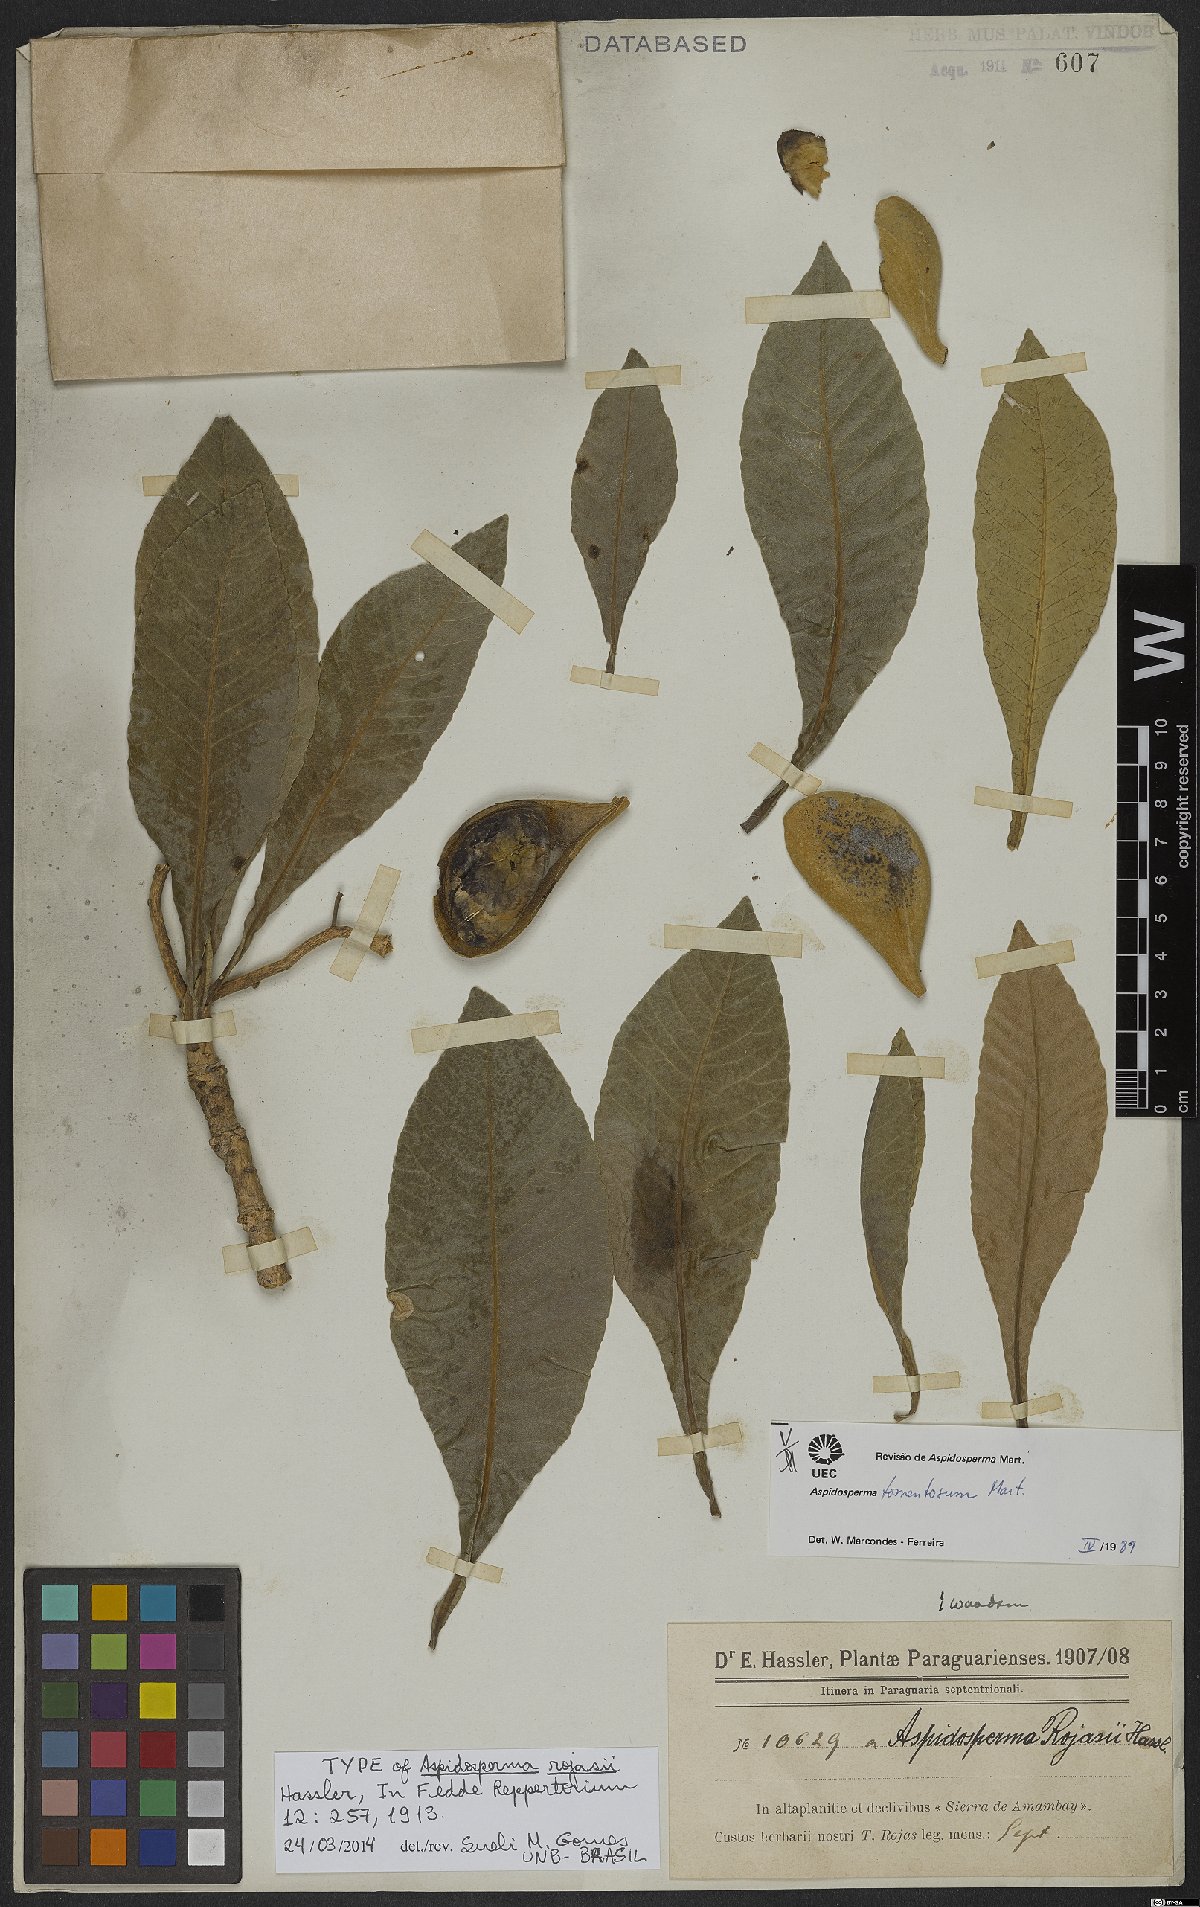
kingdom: Plantae
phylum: Tracheophyta
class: Magnoliopsida
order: Gentianales
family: Apocynaceae
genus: Aspidosperma
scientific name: Aspidosperma tomentosum
